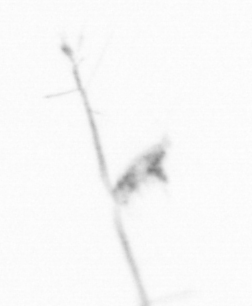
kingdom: Animalia
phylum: Arthropoda
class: Copepoda
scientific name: Copepoda
